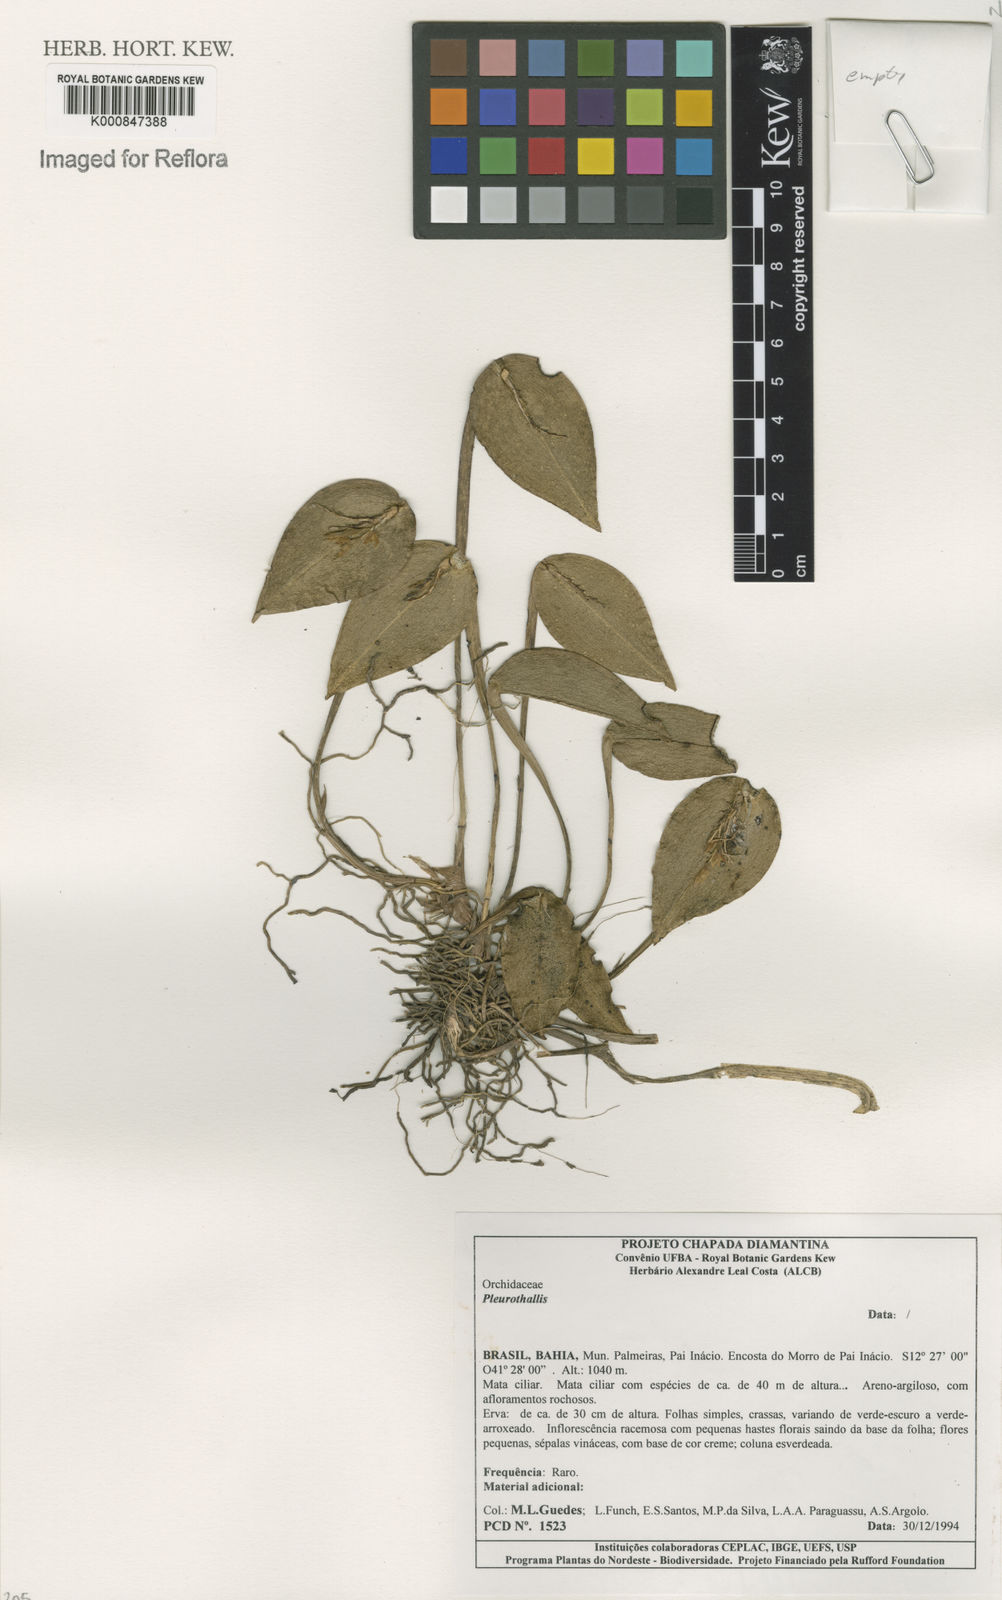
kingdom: Plantae
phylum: Tracheophyta
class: Liliopsida
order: Asparagales
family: Orchidaceae
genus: Acianthera
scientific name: Acianthera
